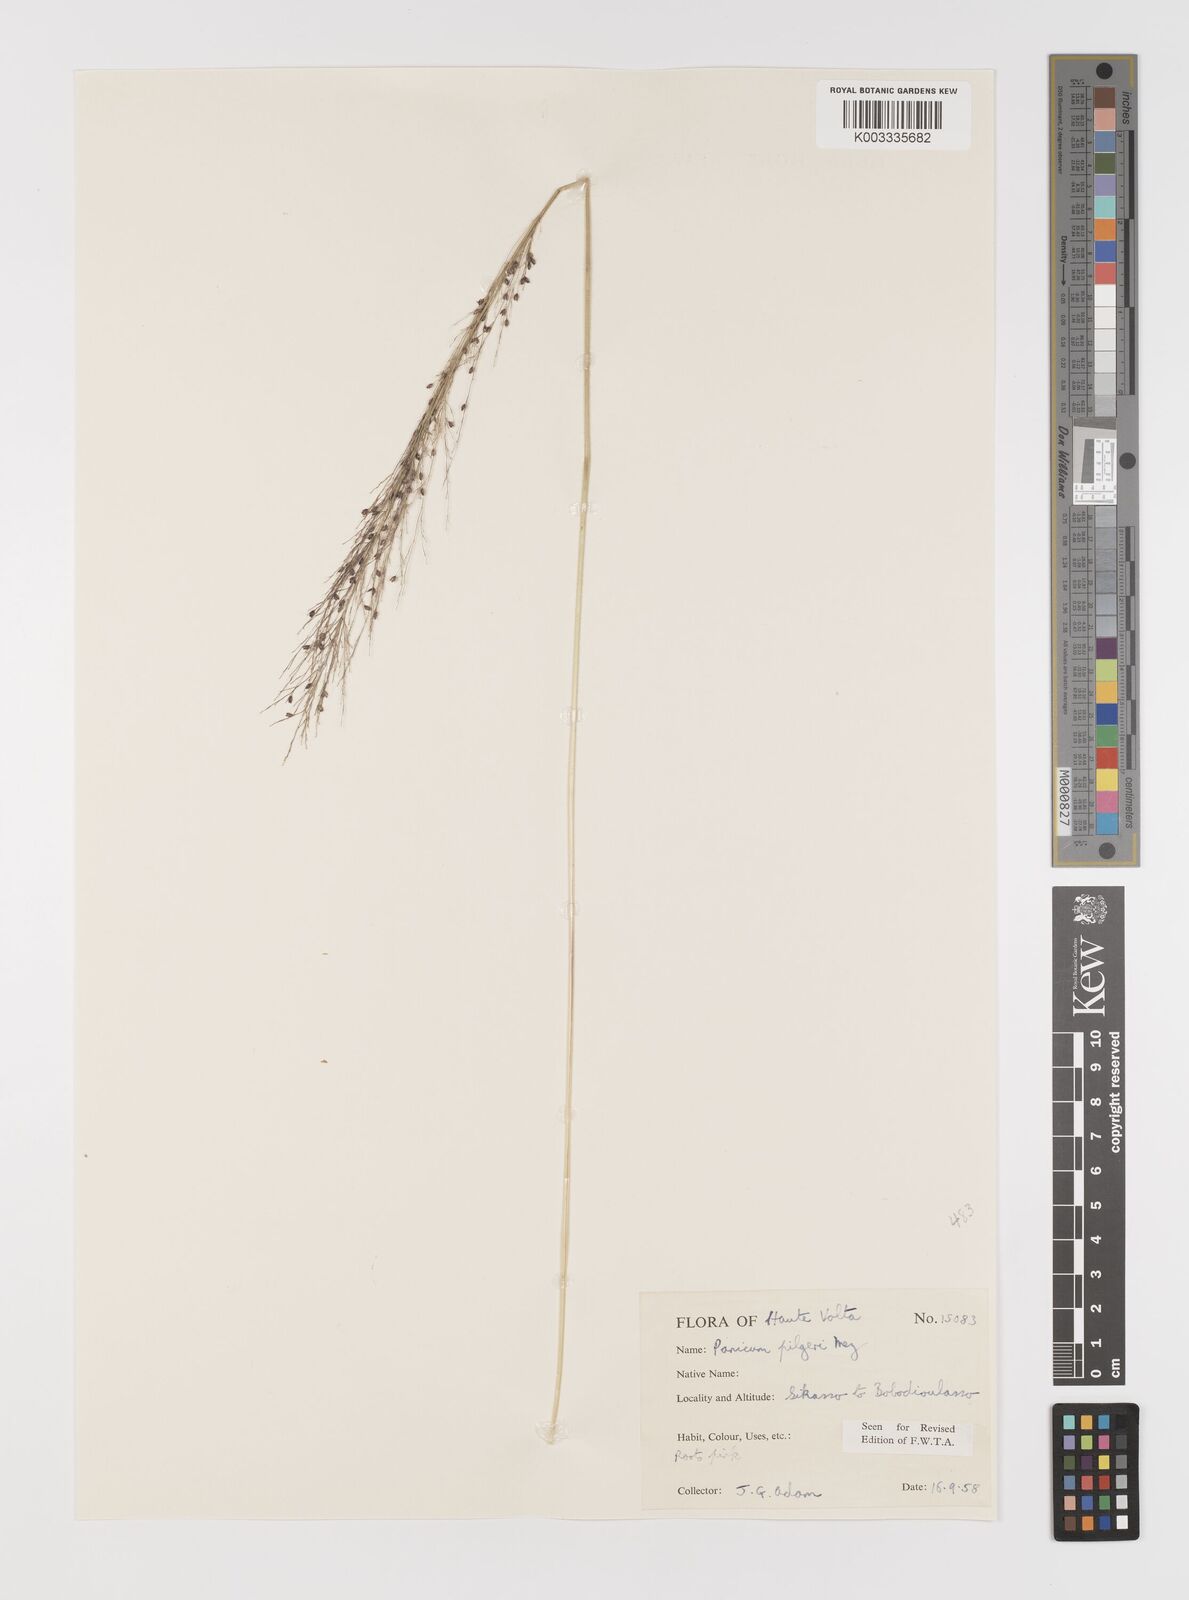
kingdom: Plantae
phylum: Tracheophyta
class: Liliopsida
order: Poales
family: Poaceae
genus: Panicum
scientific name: Panicum
